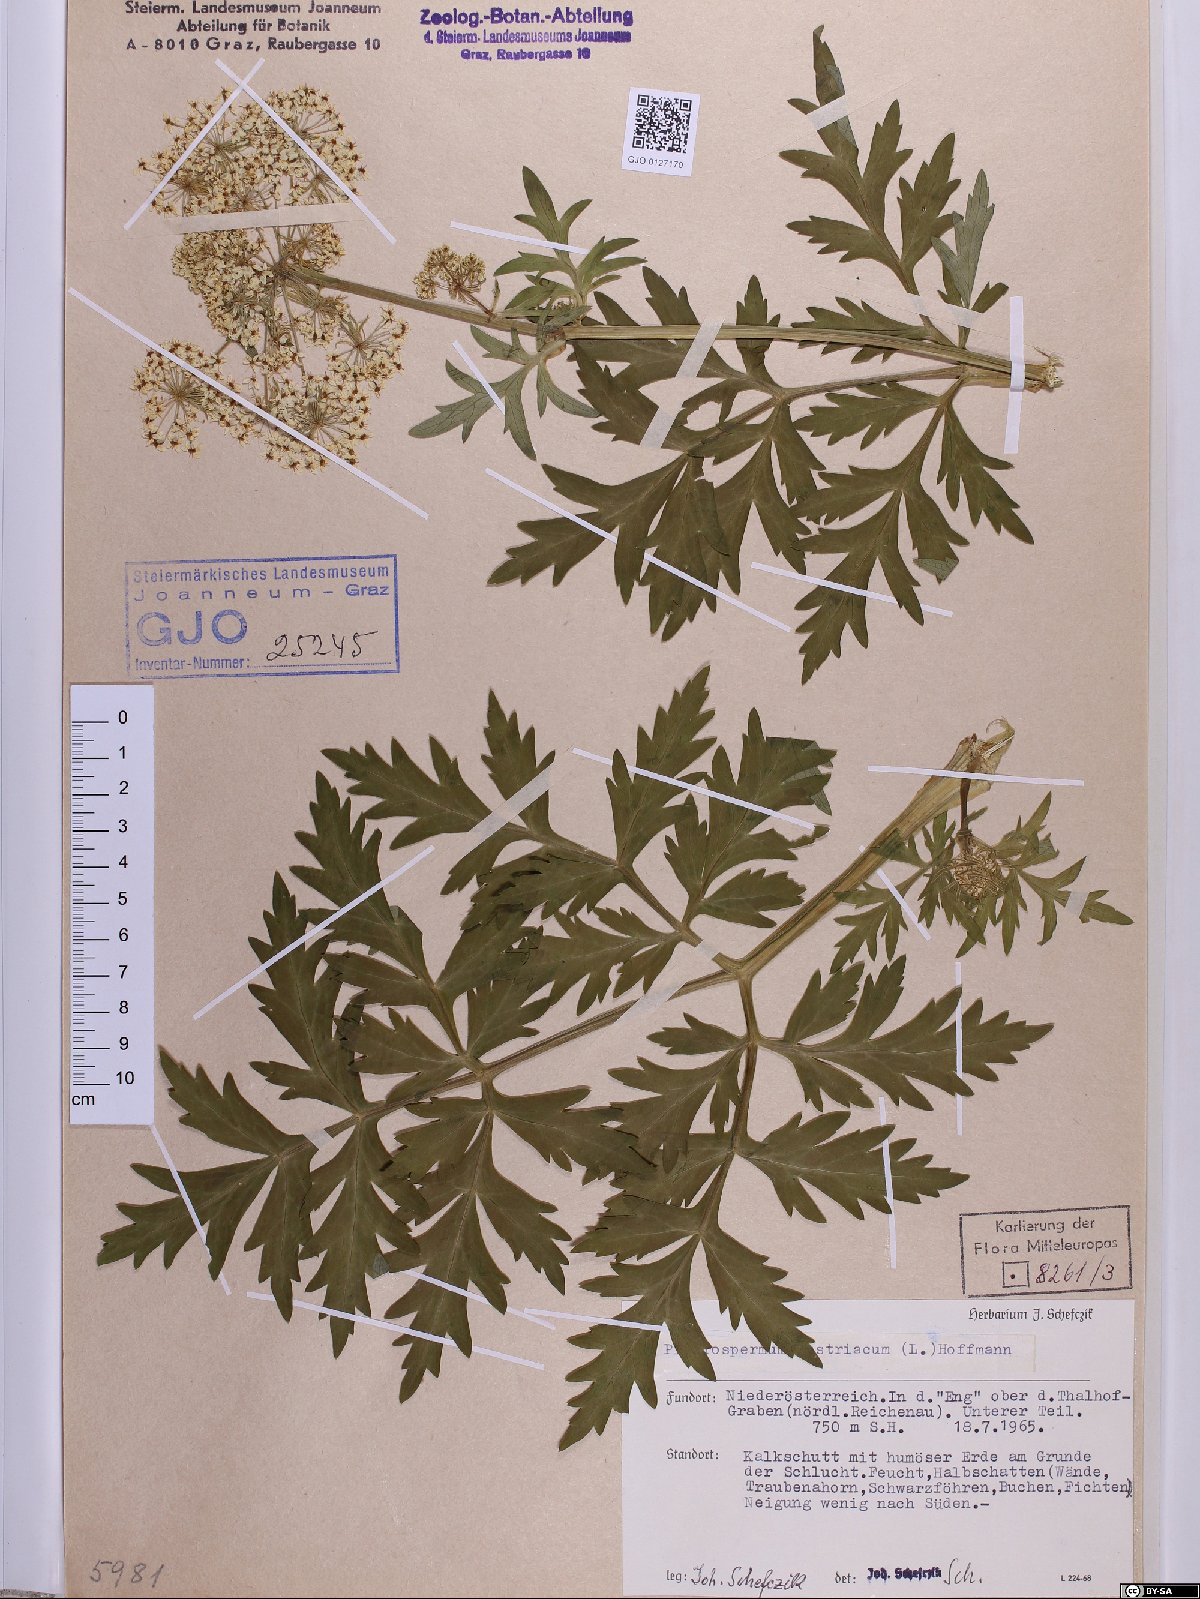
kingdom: Plantae
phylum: Tracheophyta
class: Magnoliopsida
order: Apiales
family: Apiaceae
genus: Pleurospermum
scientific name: Pleurospermum austriacum
